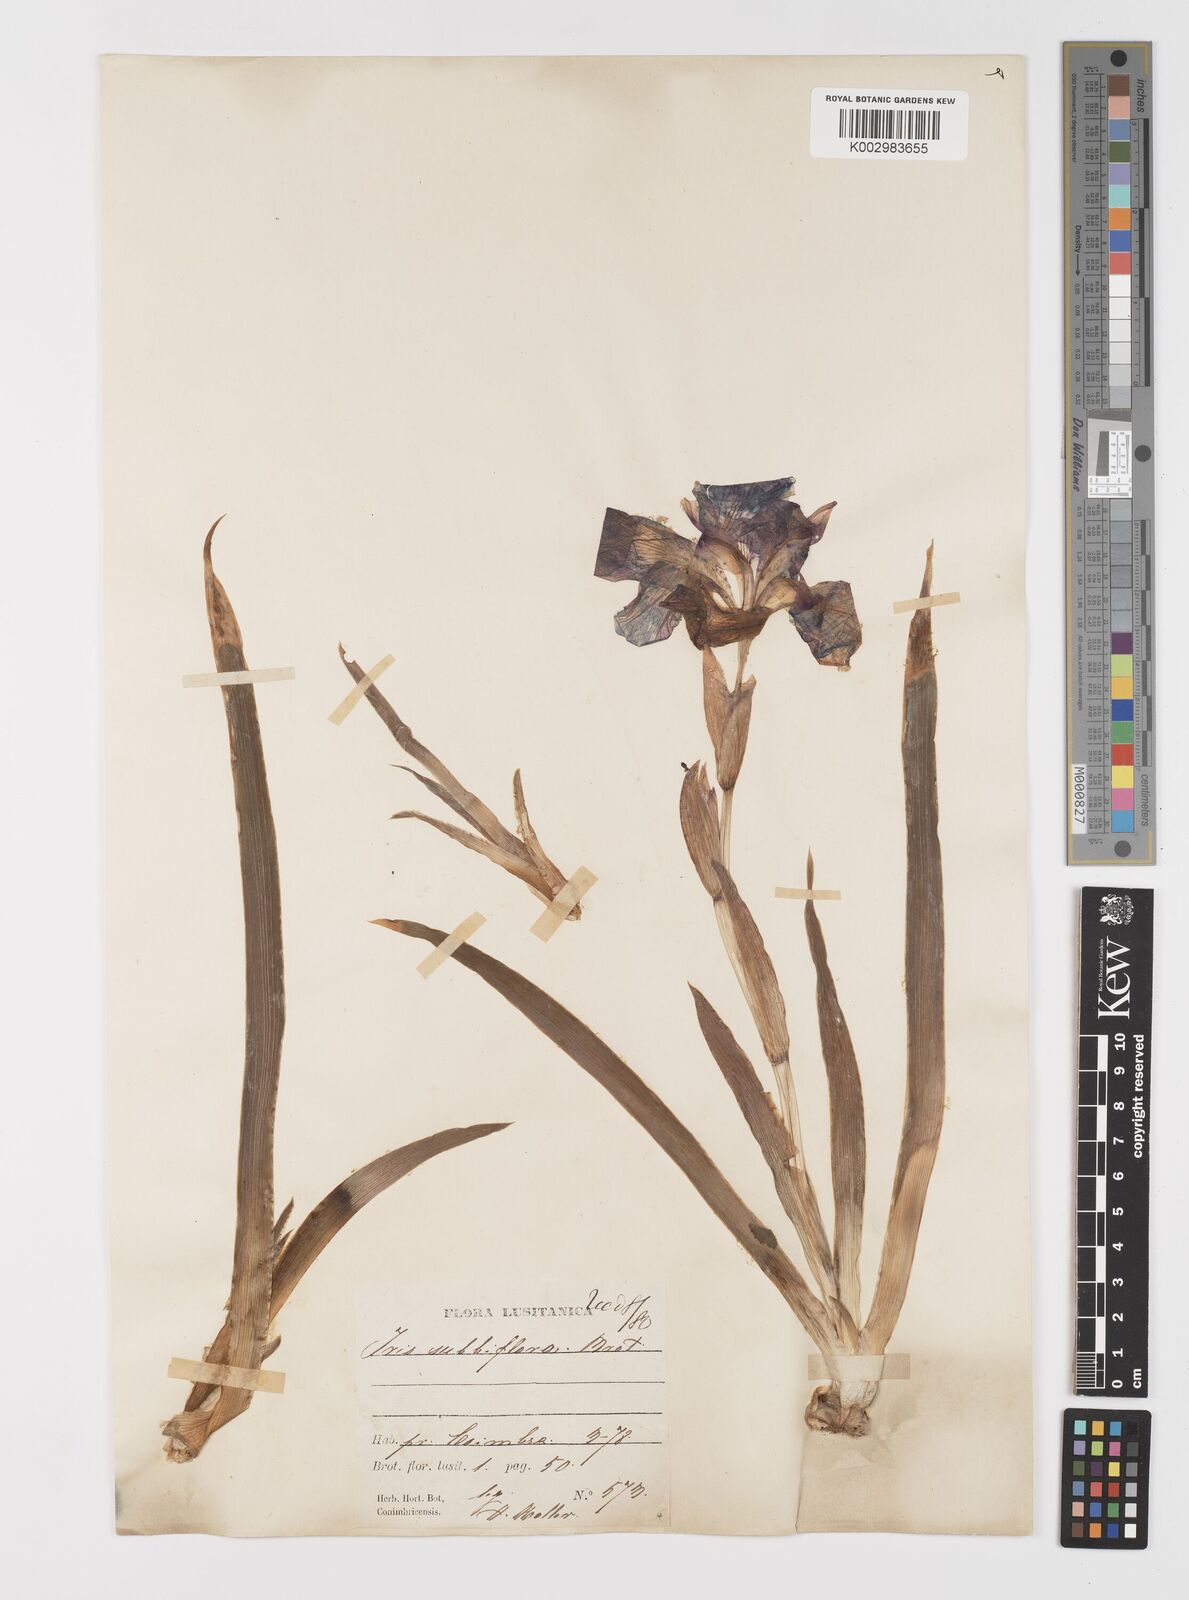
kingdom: Plantae
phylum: Tracheophyta
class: Liliopsida
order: Asparagales
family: Iridaceae
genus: Iris
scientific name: Iris lutescens
